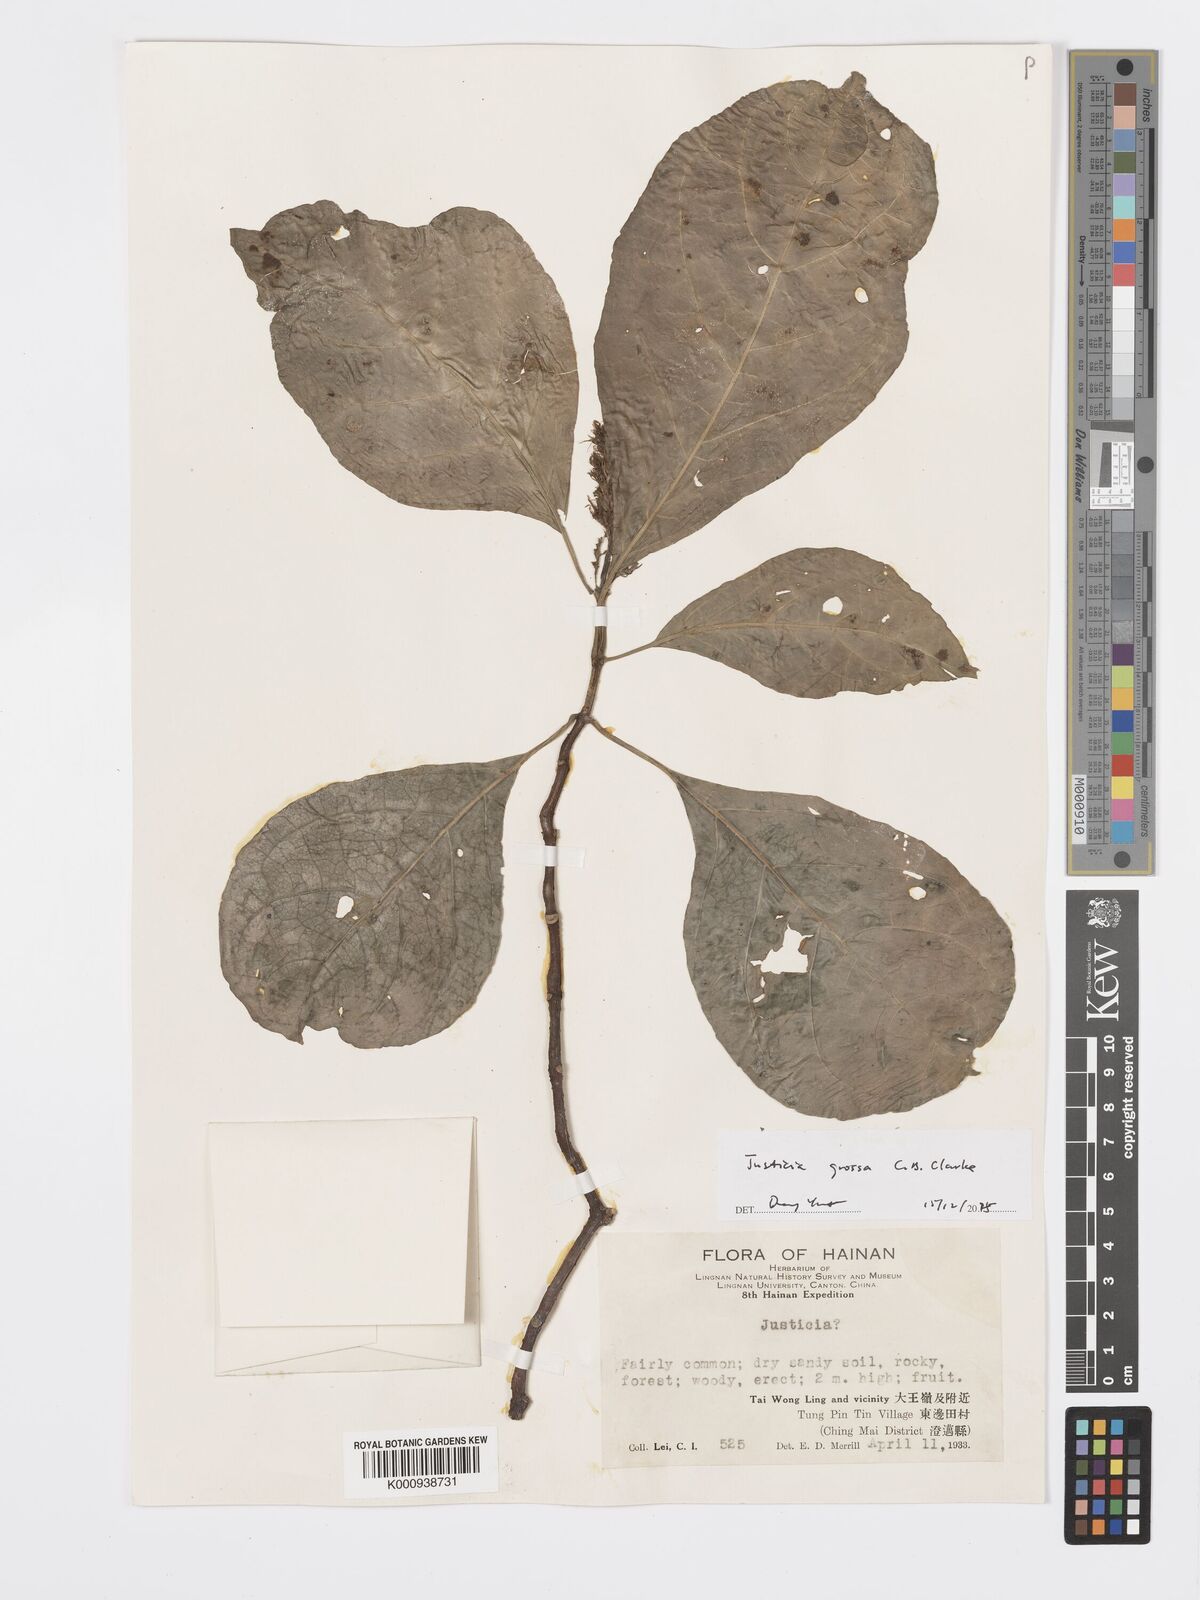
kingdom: Plantae
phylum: Tracheophyta
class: Magnoliopsida
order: Lamiales
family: Acanthaceae
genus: Ecbolium
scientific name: Ecbolium grossum
